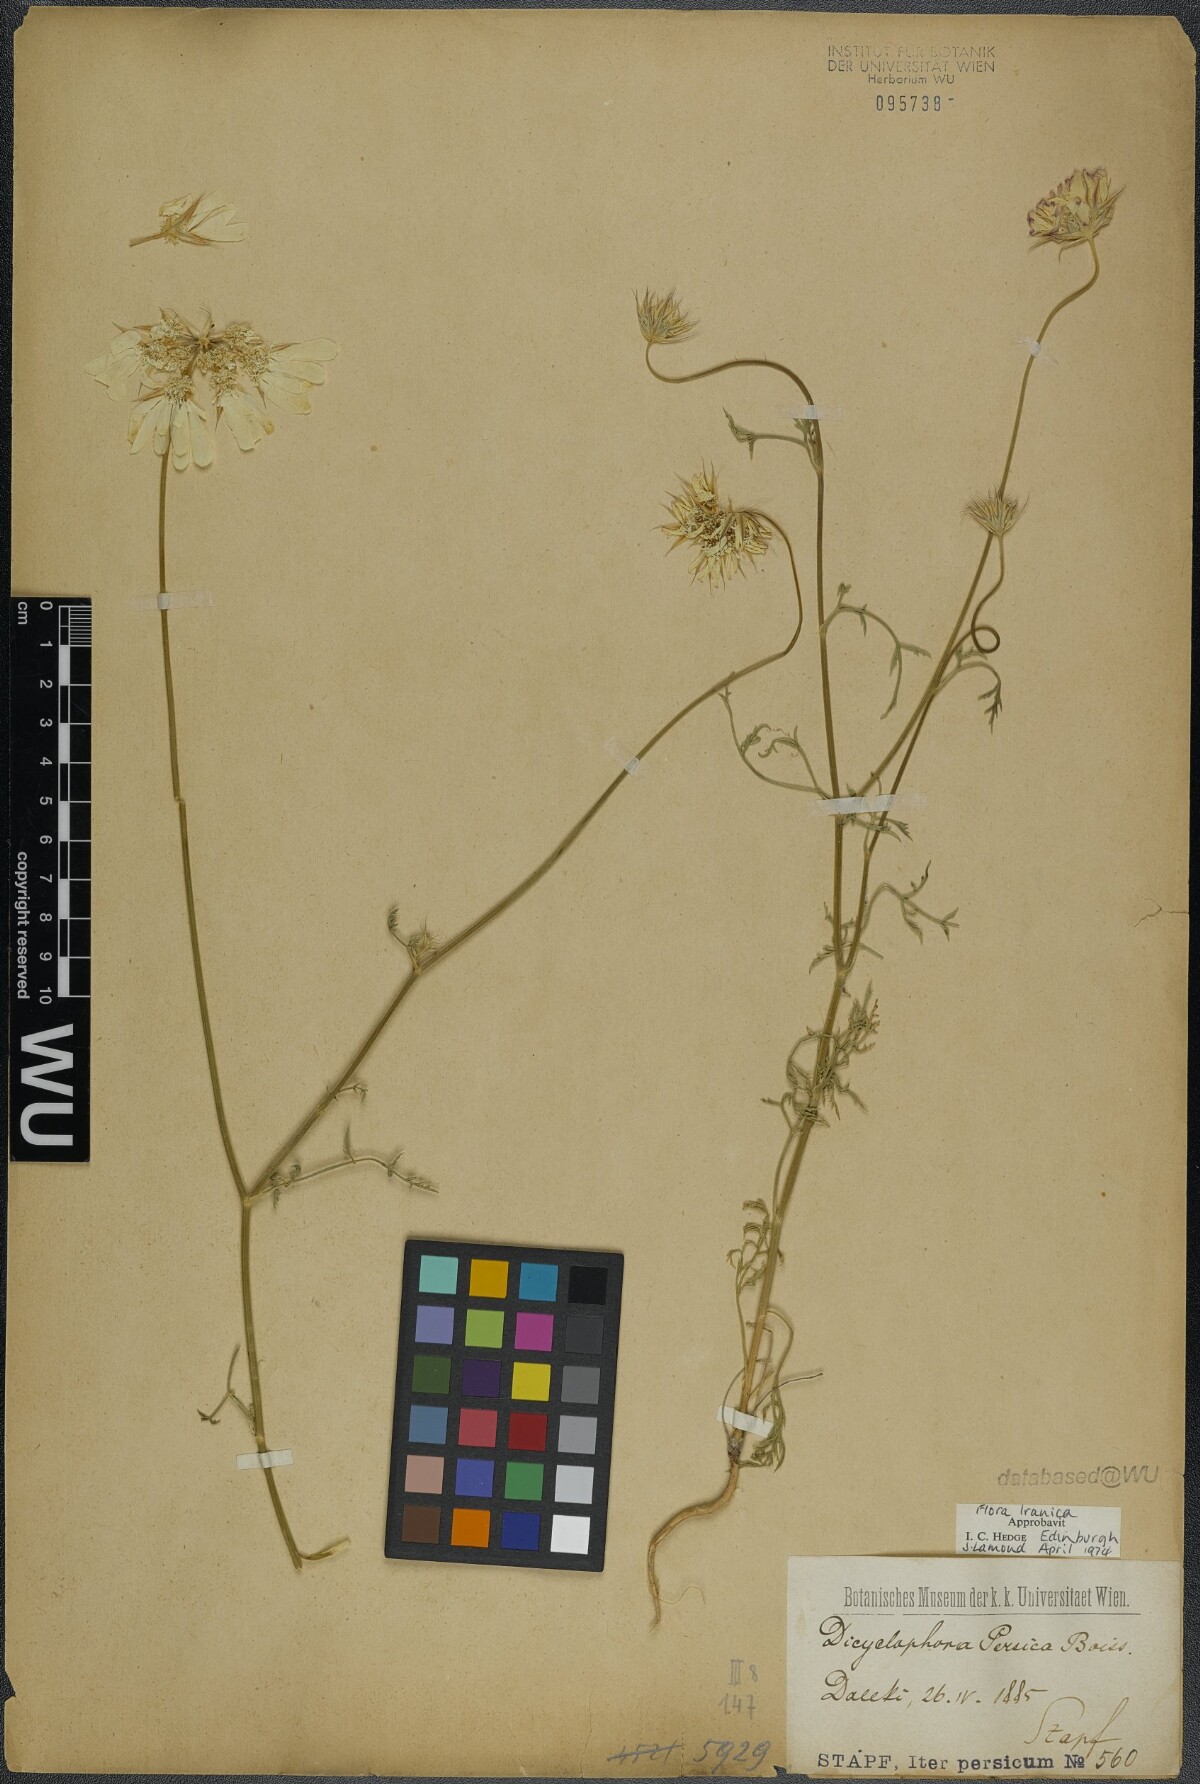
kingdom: Plantae
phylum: Tracheophyta
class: Magnoliopsida
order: Apiales
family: Apiaceae
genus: Dicyclophora
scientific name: Dicyclophora persica
